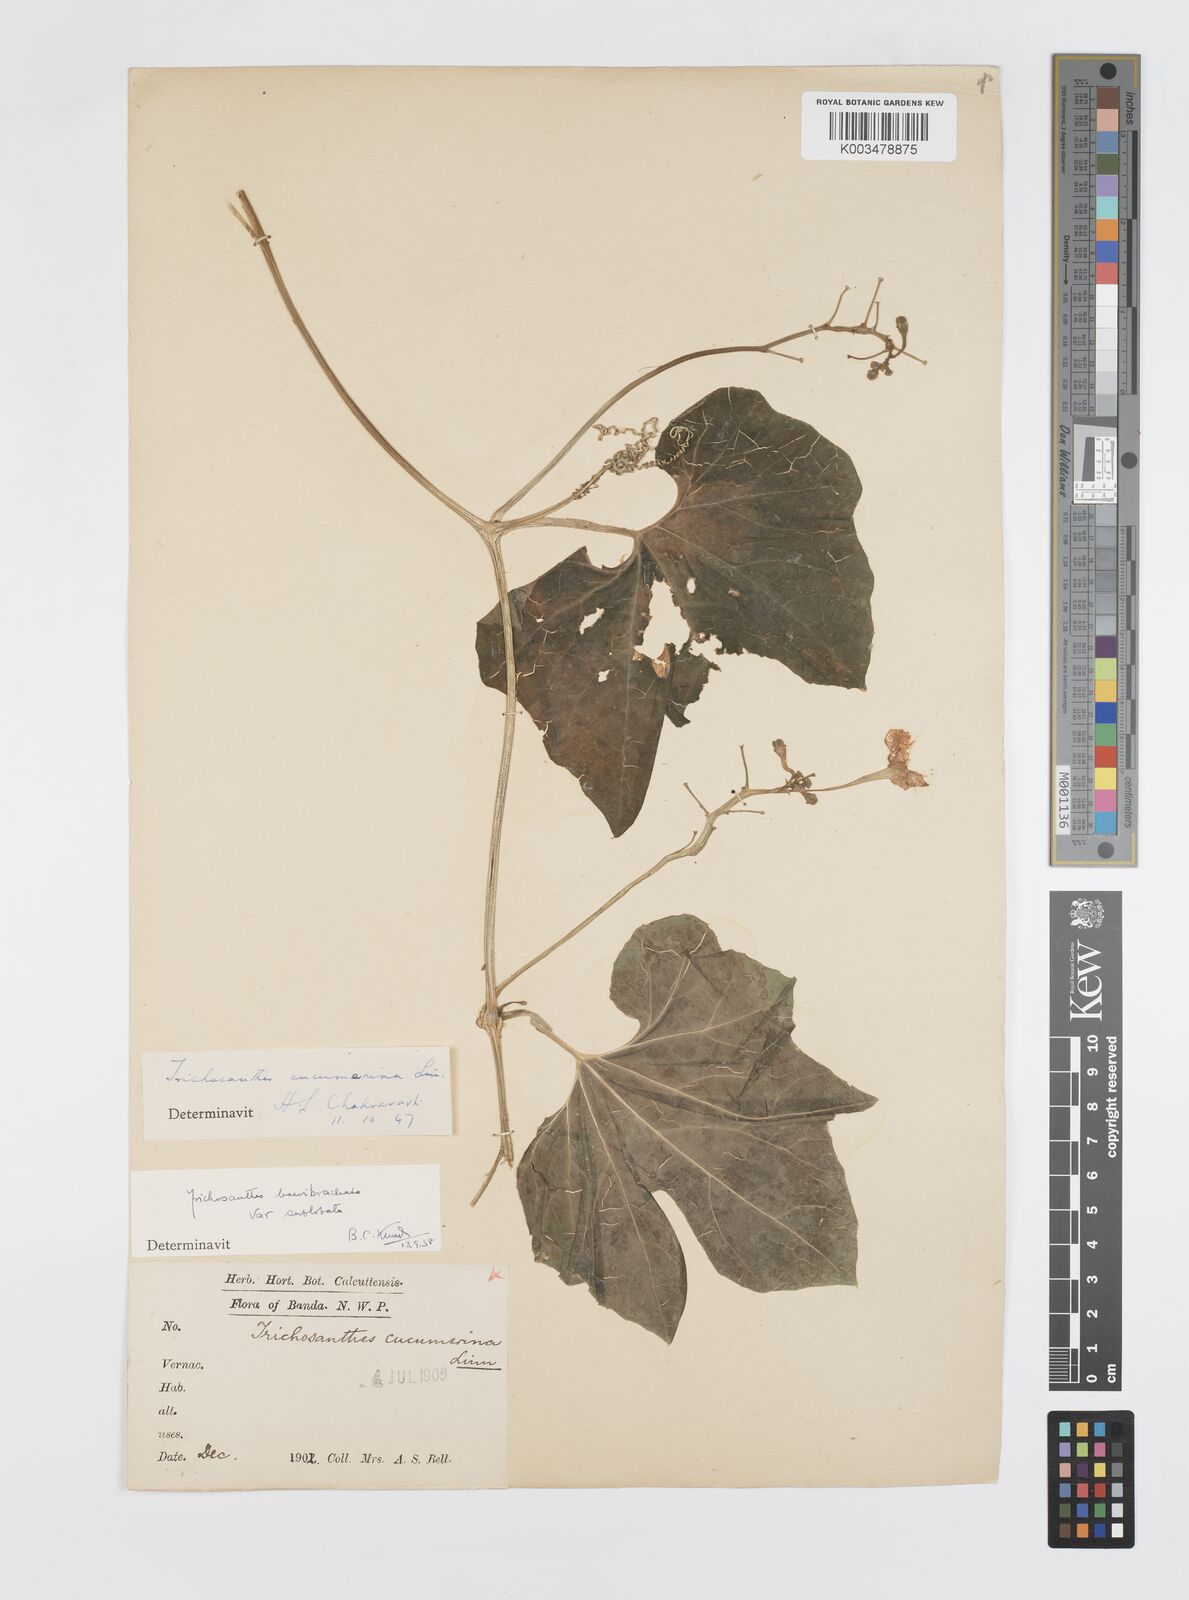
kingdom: Plantae
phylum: Tracheophyta
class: Magnoliopsida
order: Cucurbitales
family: Cucurbitaceae
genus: Trichosanthes
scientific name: Trichosanthes cucumerina
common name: Snakegourd
